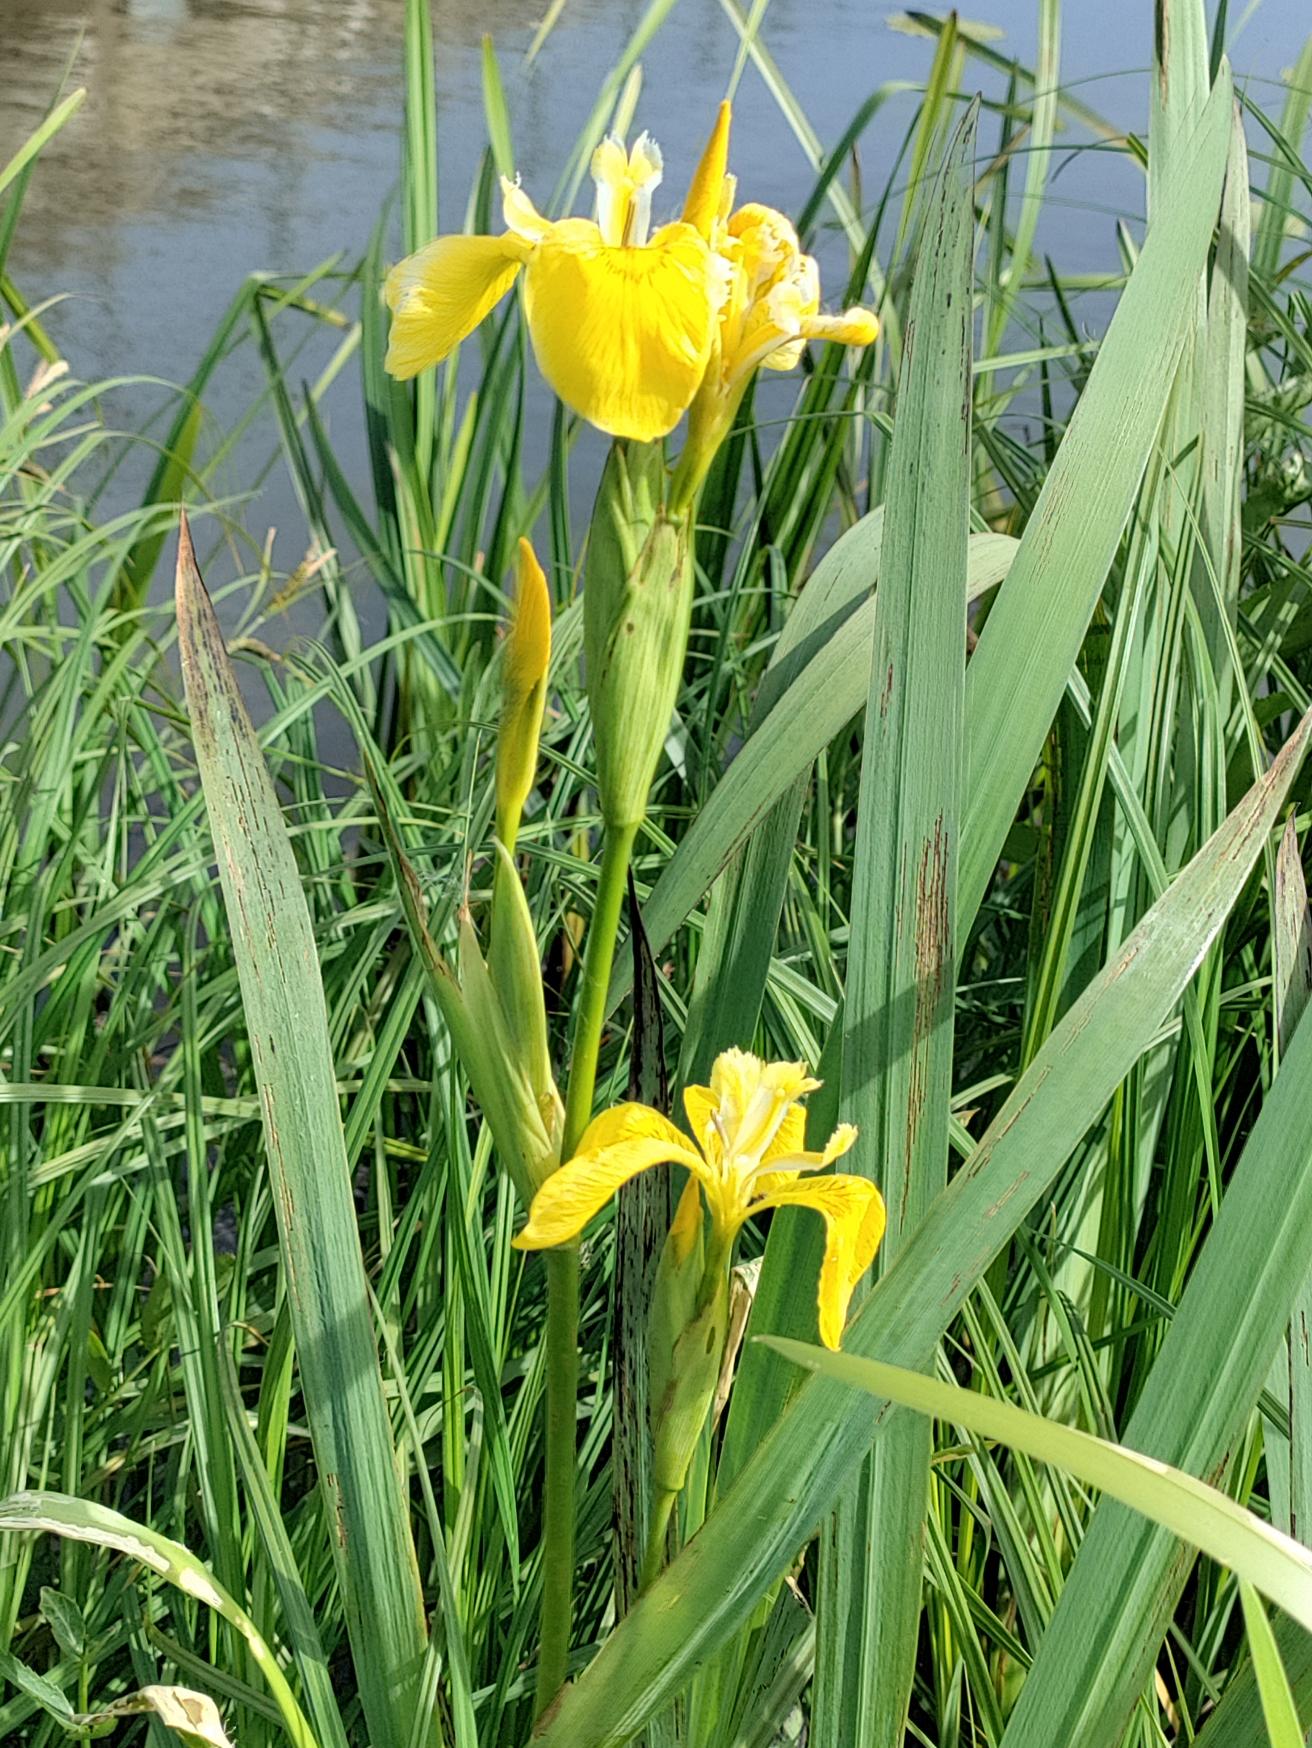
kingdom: Plantae
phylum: Tracheophyta
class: Liliopsida
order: Asparagales
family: Iridaceae
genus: Iris
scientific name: Iris pseudacorus
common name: Gul iris
